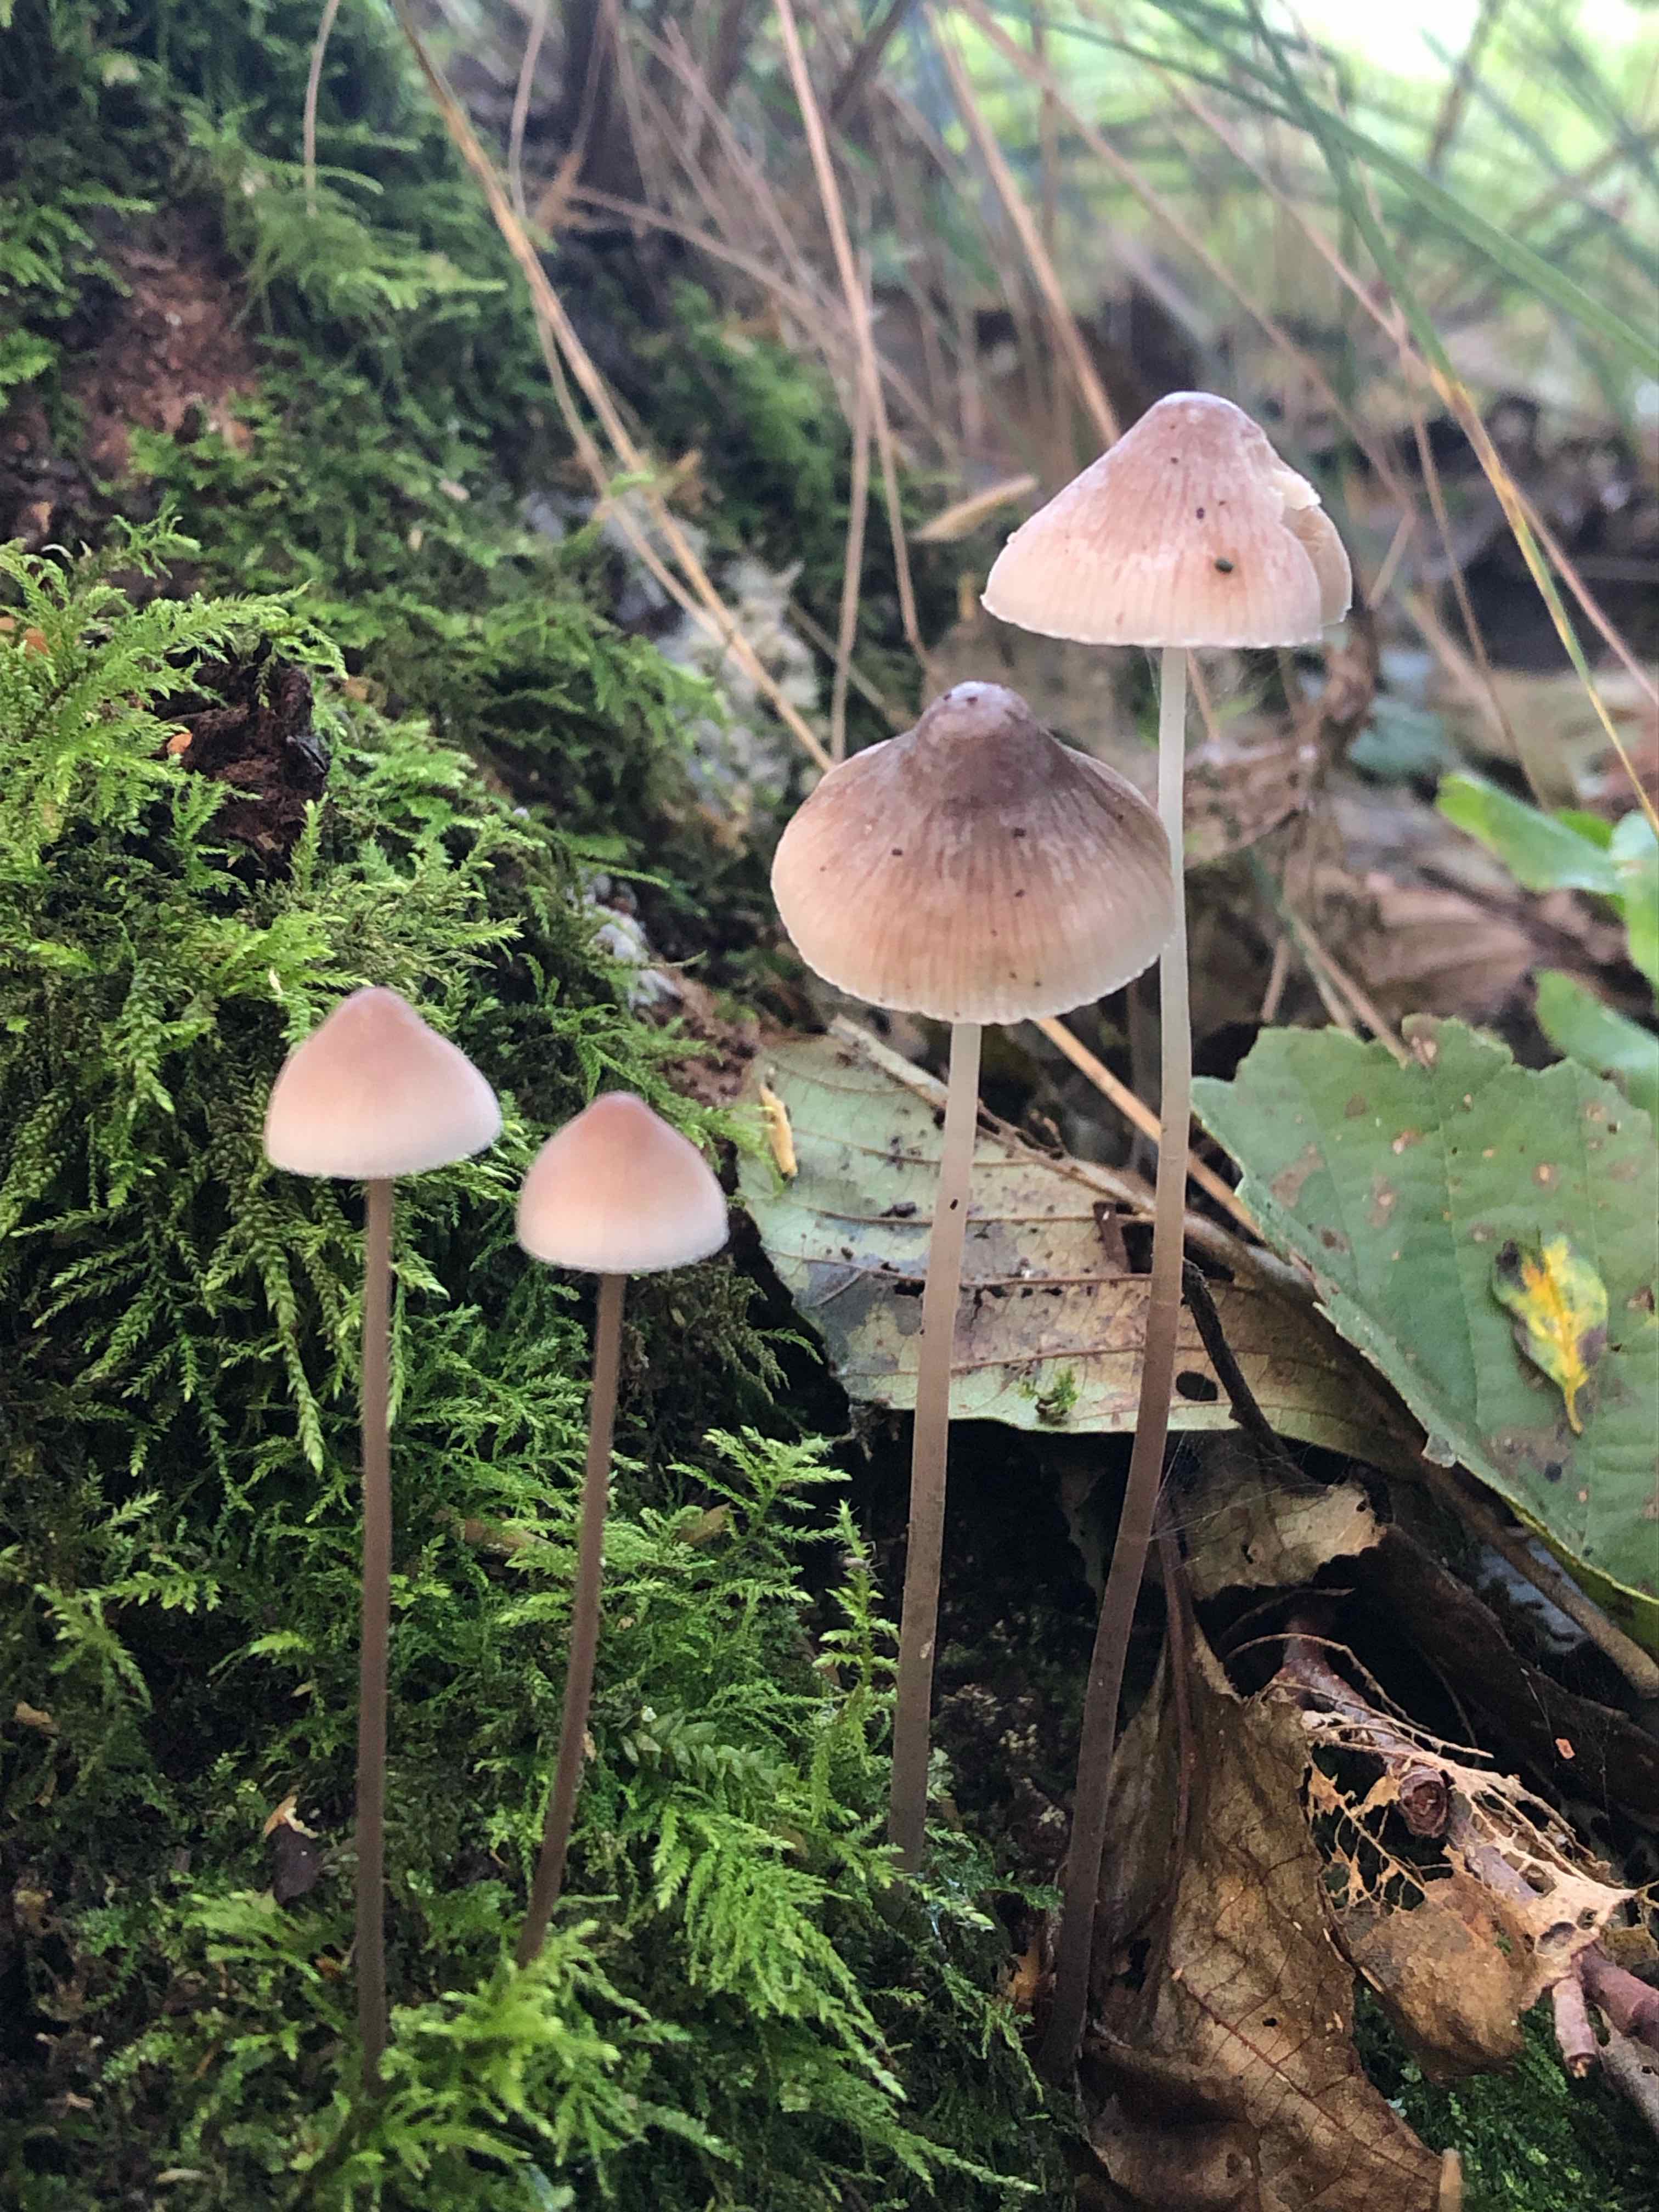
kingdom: Fungi
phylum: Basidiomycota
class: Agaricomycetes
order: Agaricales
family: Mycenaceae
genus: Mycena
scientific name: Mycena filopes
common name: jod-huesvamp
